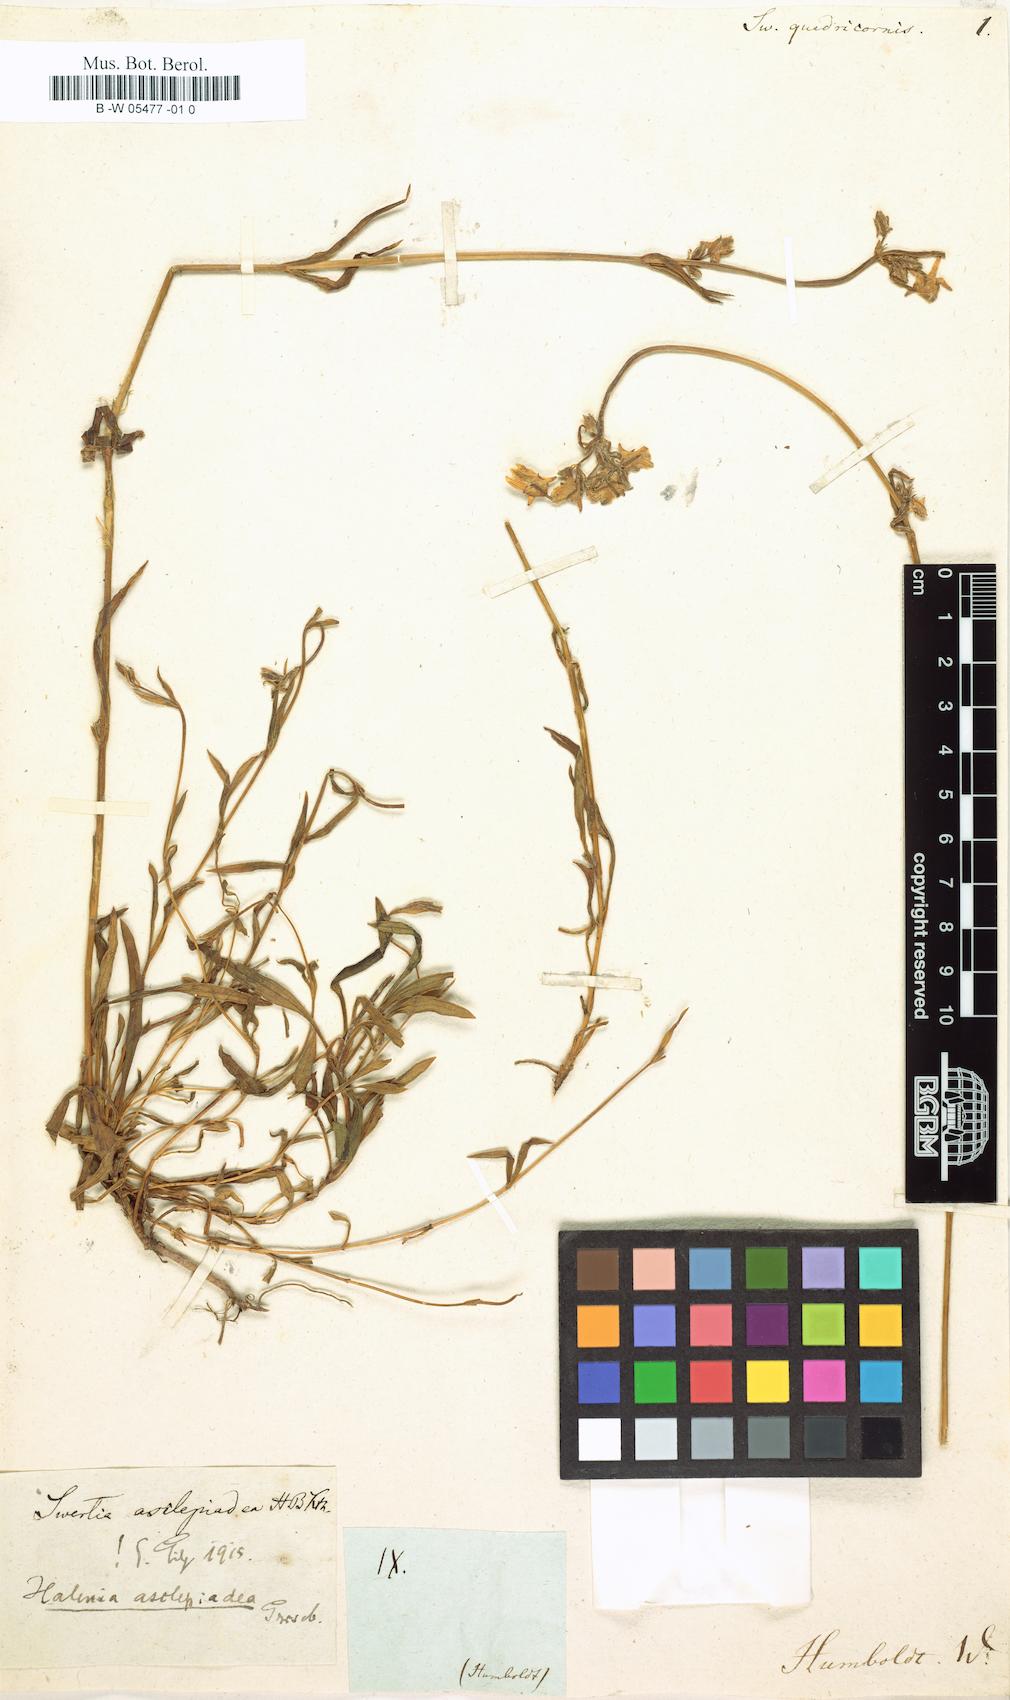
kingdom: Plantae
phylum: Tracheophyta
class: Magnoliopsida
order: Gentianales
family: Gentianaceae
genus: Halenia
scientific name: Halenia asclepiadea
